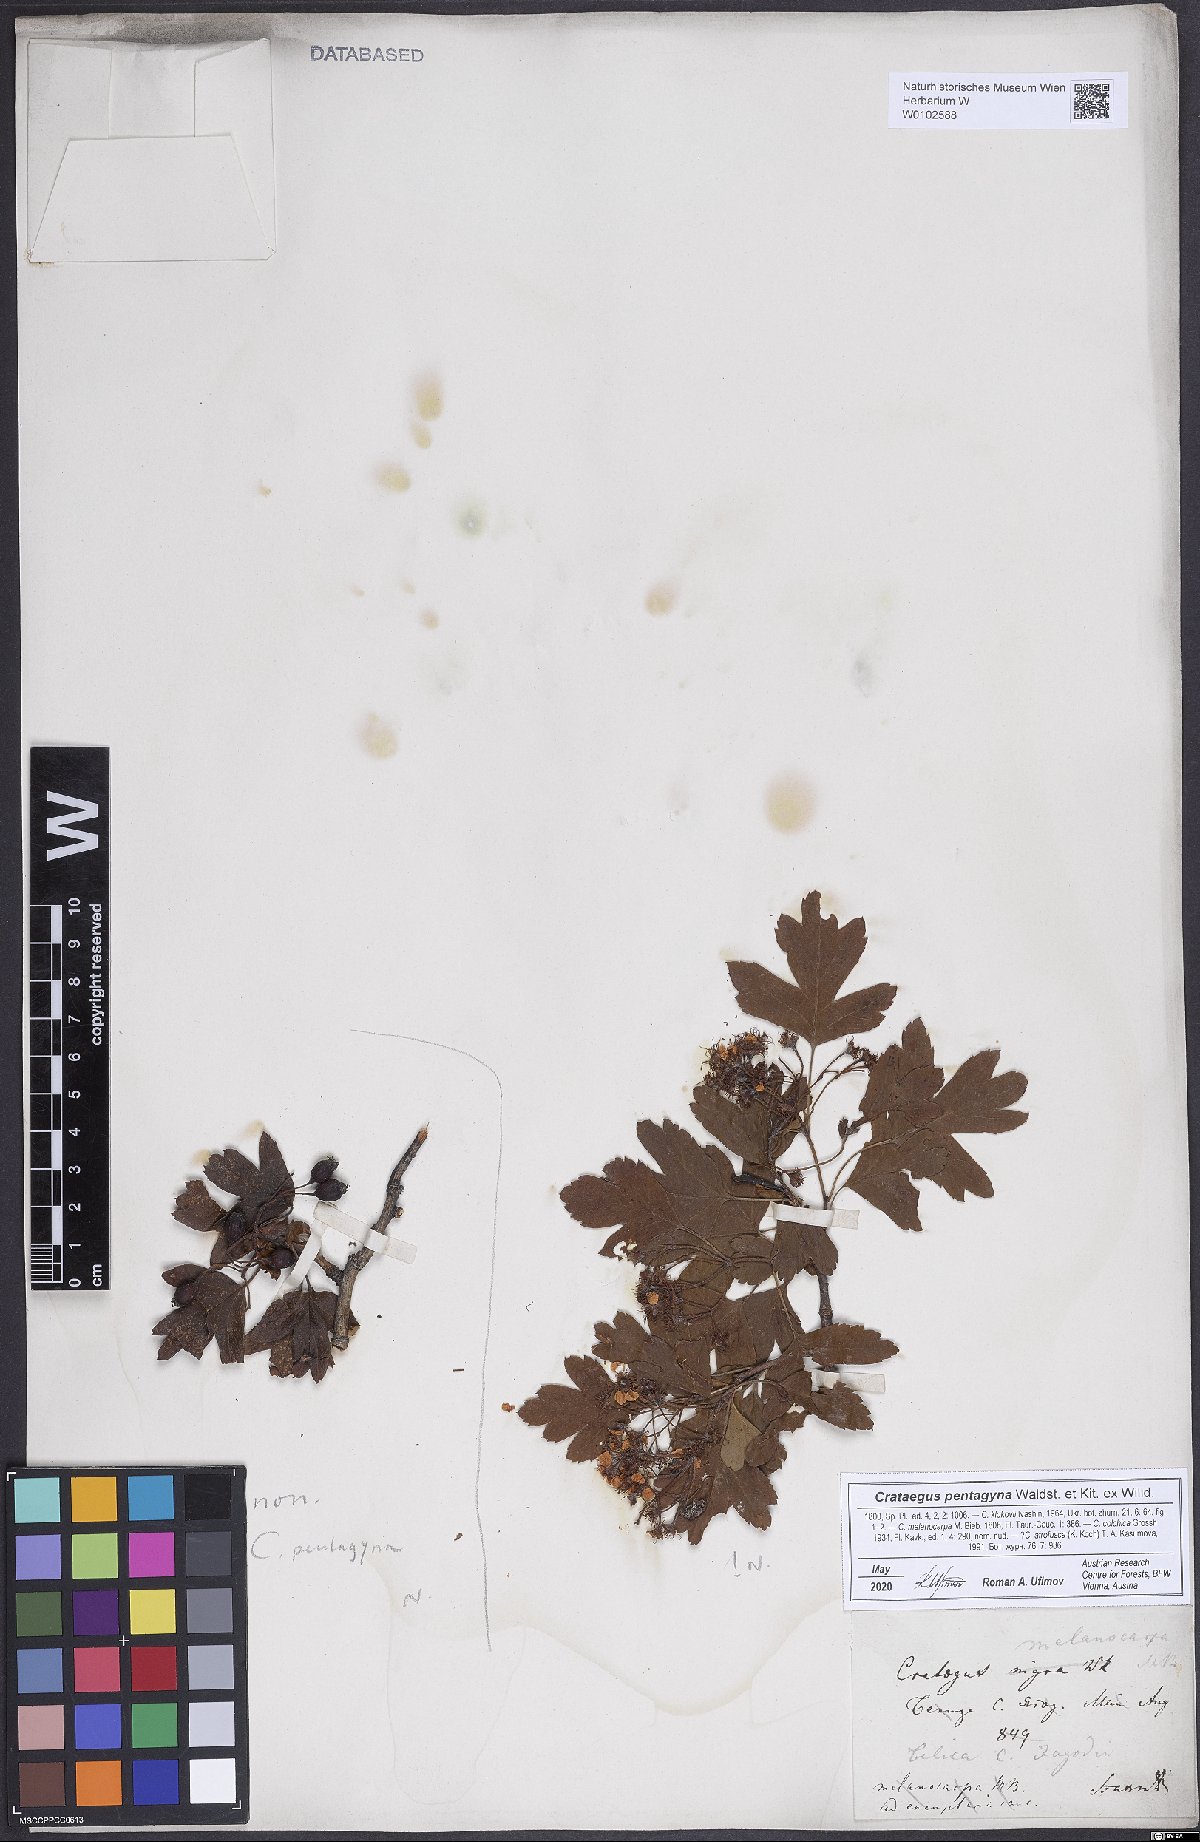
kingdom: Plantae
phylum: Tracheophyta
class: Magnoliopsida
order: Rosales
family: Rosaceae
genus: Crataegus
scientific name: Crataegus pentagyna
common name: Small-flowered black hawthorn
